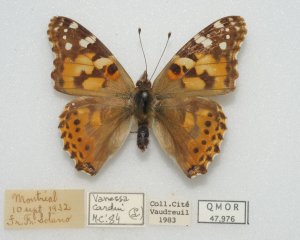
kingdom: Animalia
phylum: Arthropoda
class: Insecta
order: Lepidoptera
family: Nymphalidae
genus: Vanessa
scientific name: Vanessa cardui
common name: Painted Lady
